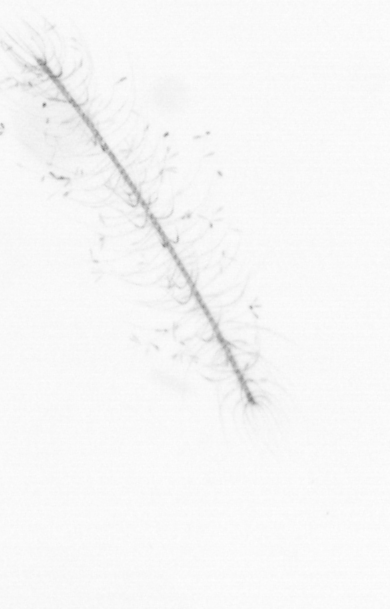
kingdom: Chromista
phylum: Ochrophyta
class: Bacillariophyceae
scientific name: Bacillariophyceae
